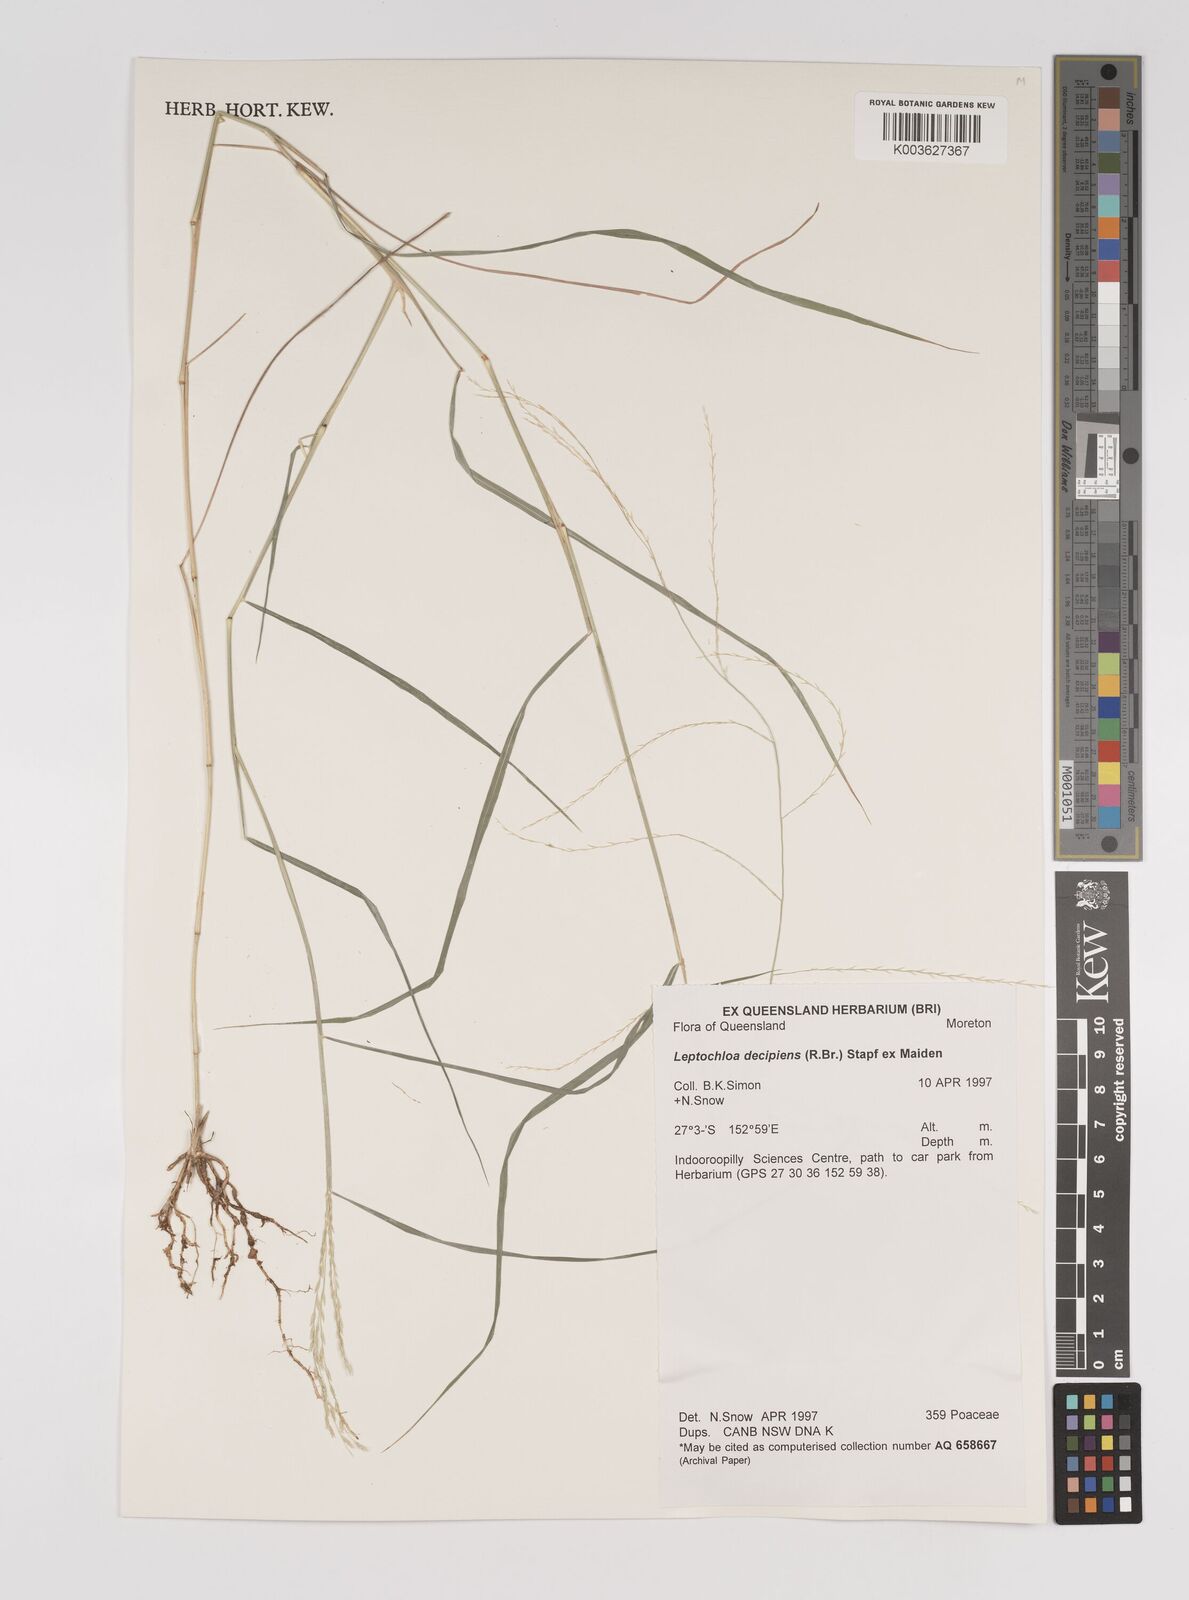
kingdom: Plantae
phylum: Tracheophyta
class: Liliopsida
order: Poales
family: Poaceae
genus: Leptochloa
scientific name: Leptochloa decipiens
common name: Australian sprangletop
